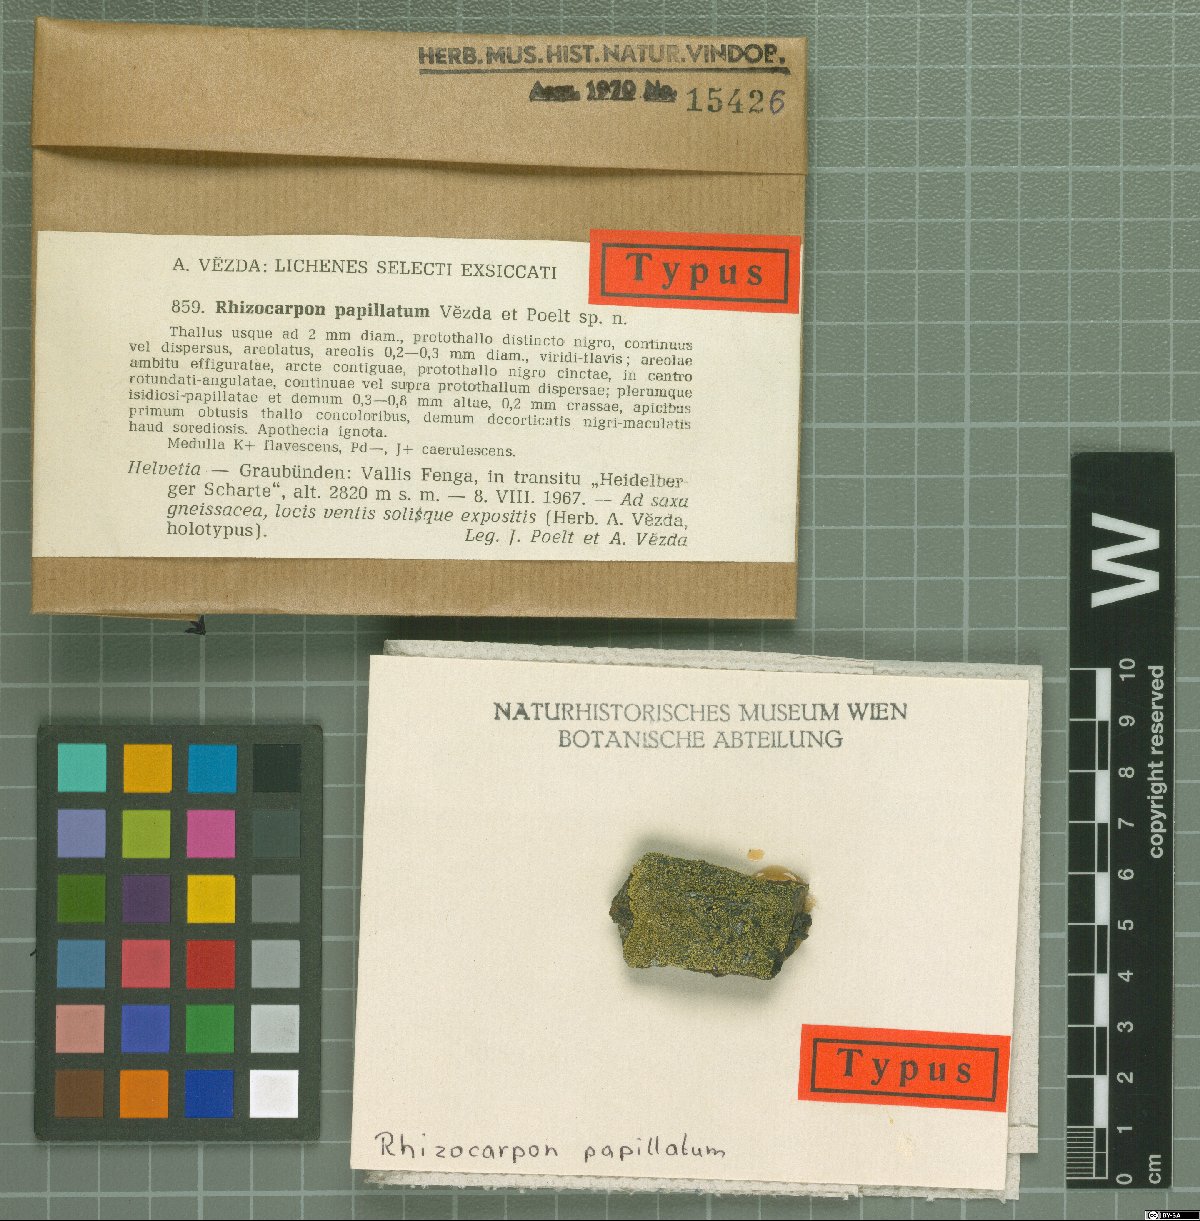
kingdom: Fungi
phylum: Ascomycota
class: Lecanoromycetes
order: Rhizocarpales
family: Rhizocarpaceae
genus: Rhizocarpon
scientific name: Rhizocarpon papillatum
